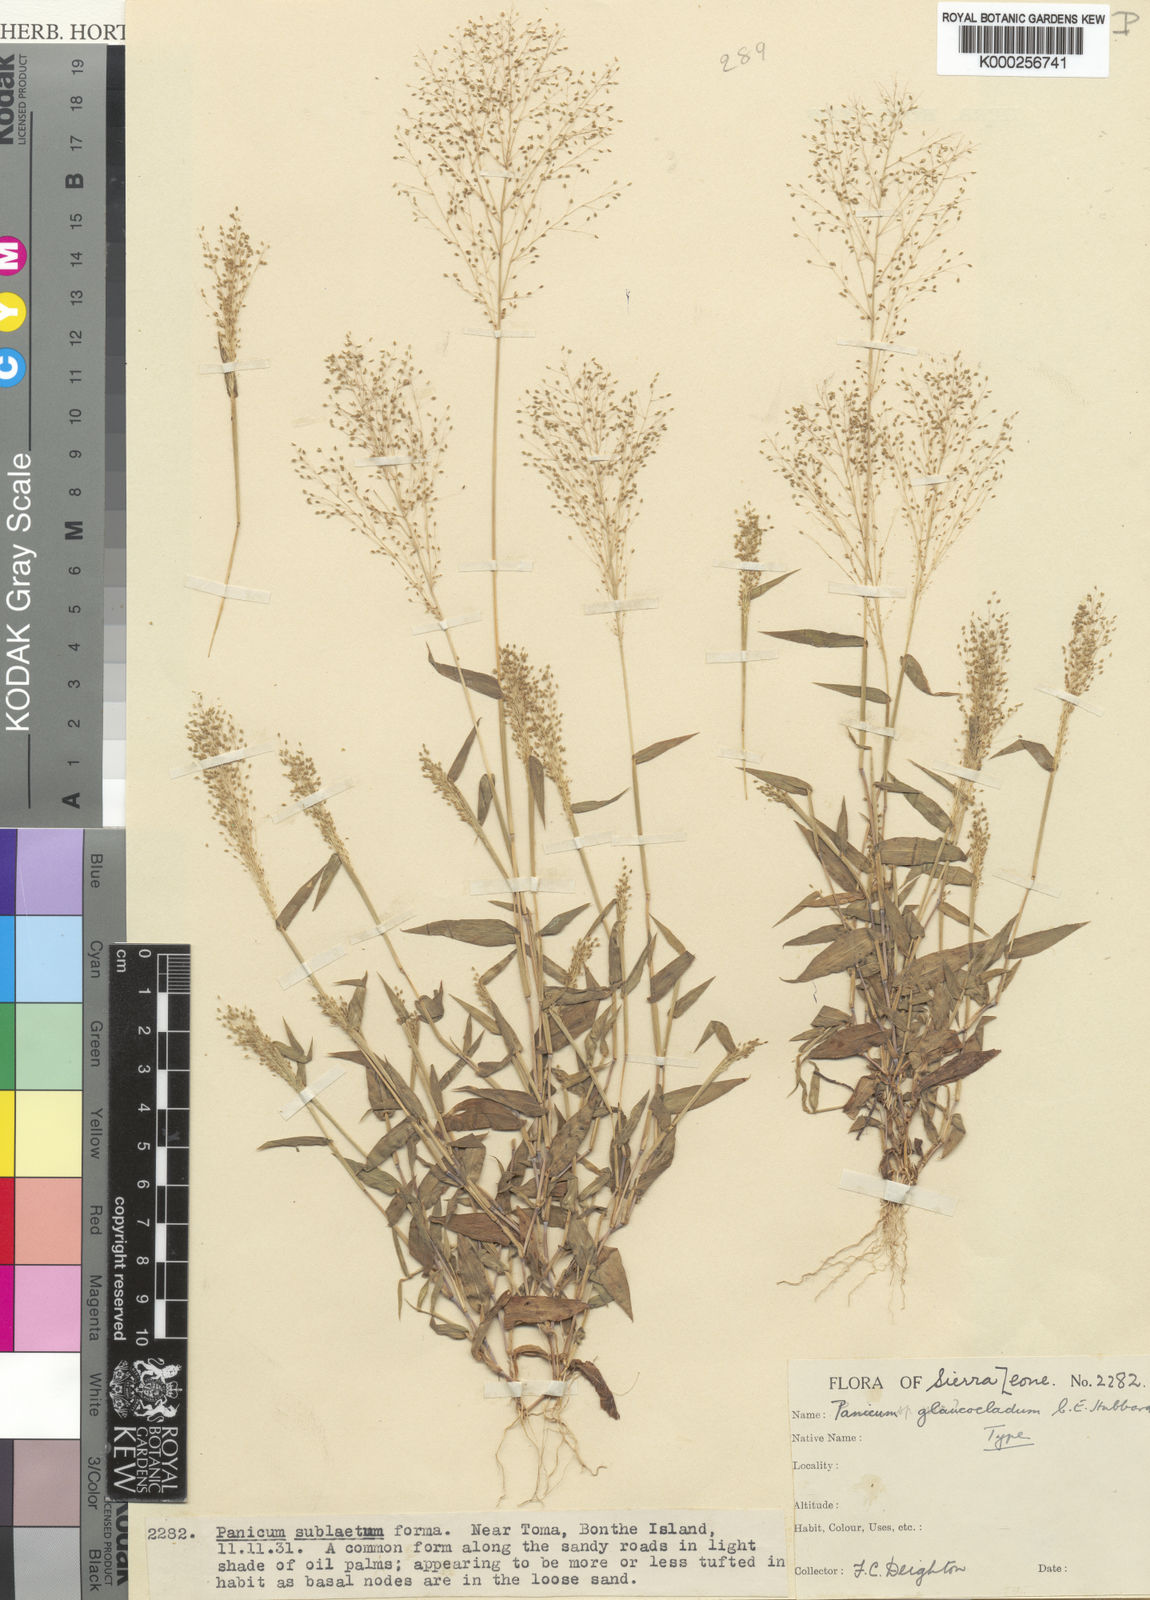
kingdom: Plantae
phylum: Tracheophyta
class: Liliopsida
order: Poales
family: Poaceae
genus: Trichanthecium
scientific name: Trichanthecium glaucocladum
